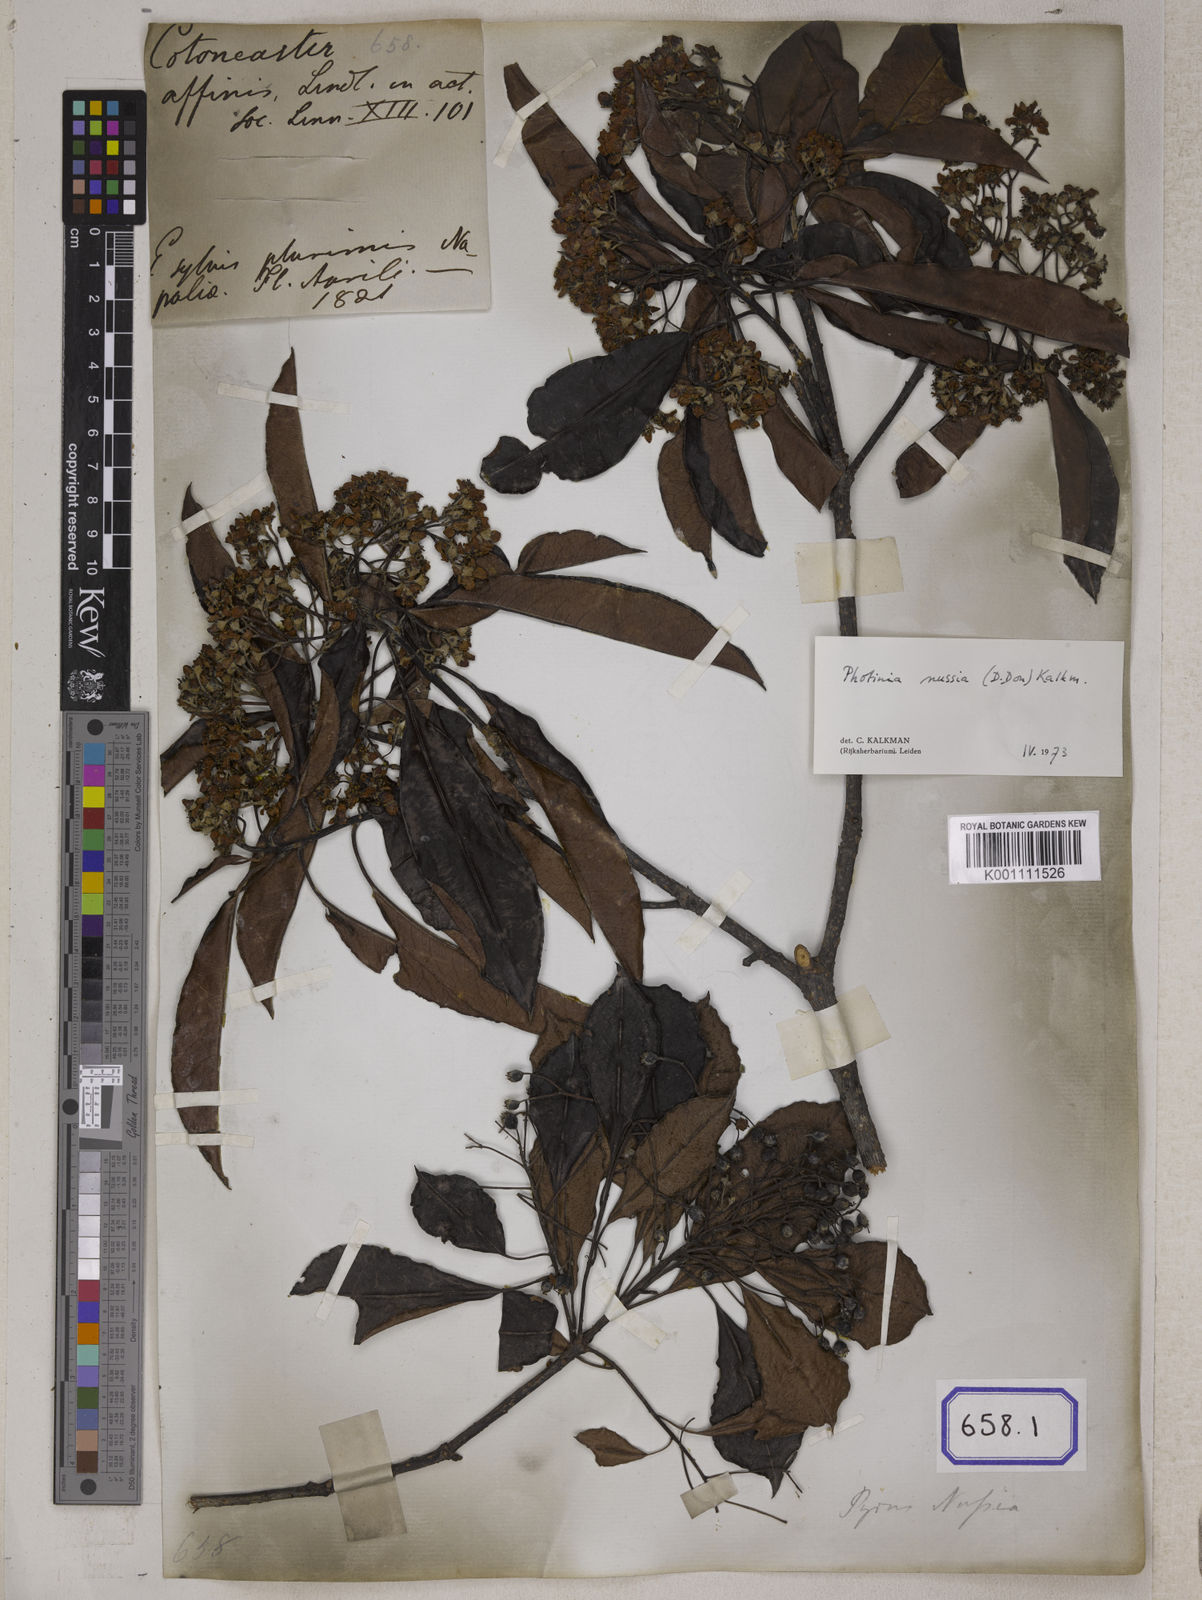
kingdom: Plantae
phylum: Tracheophyta
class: Magnoliopsida
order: Rosales
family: Rosaceae
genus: Cotoneaster
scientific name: Cotoneaster affinis
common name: Purpleberry cotoneaster
